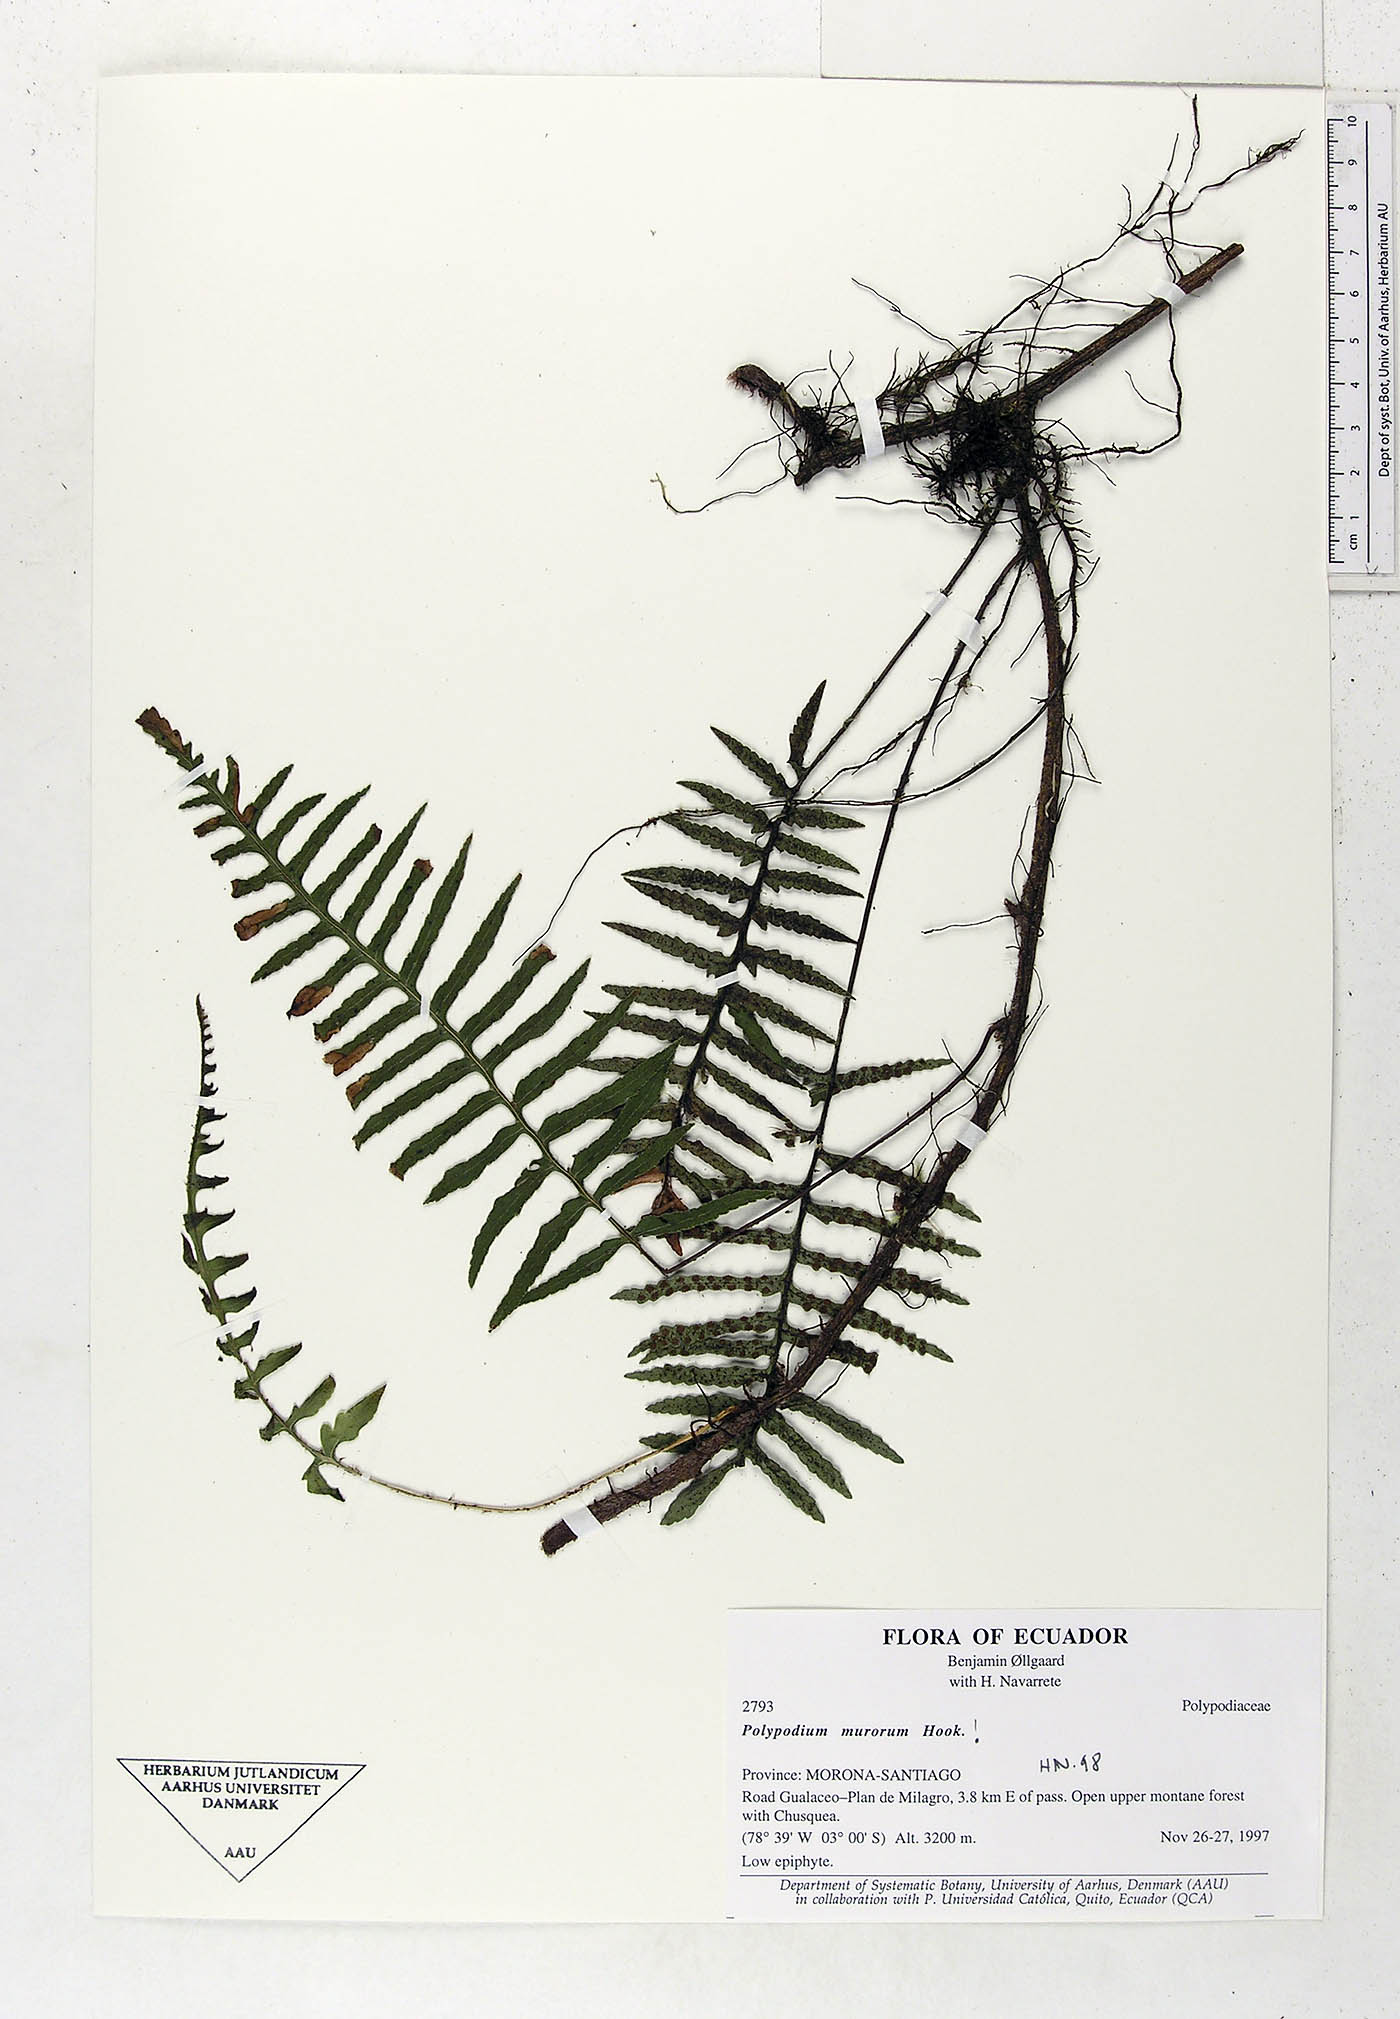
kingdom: Plantae
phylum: Tracheophyta
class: Polypodiopsida
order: Polypodiales
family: Polypodiaceae
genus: Pleopeltis
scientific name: Pleopeltis murora
